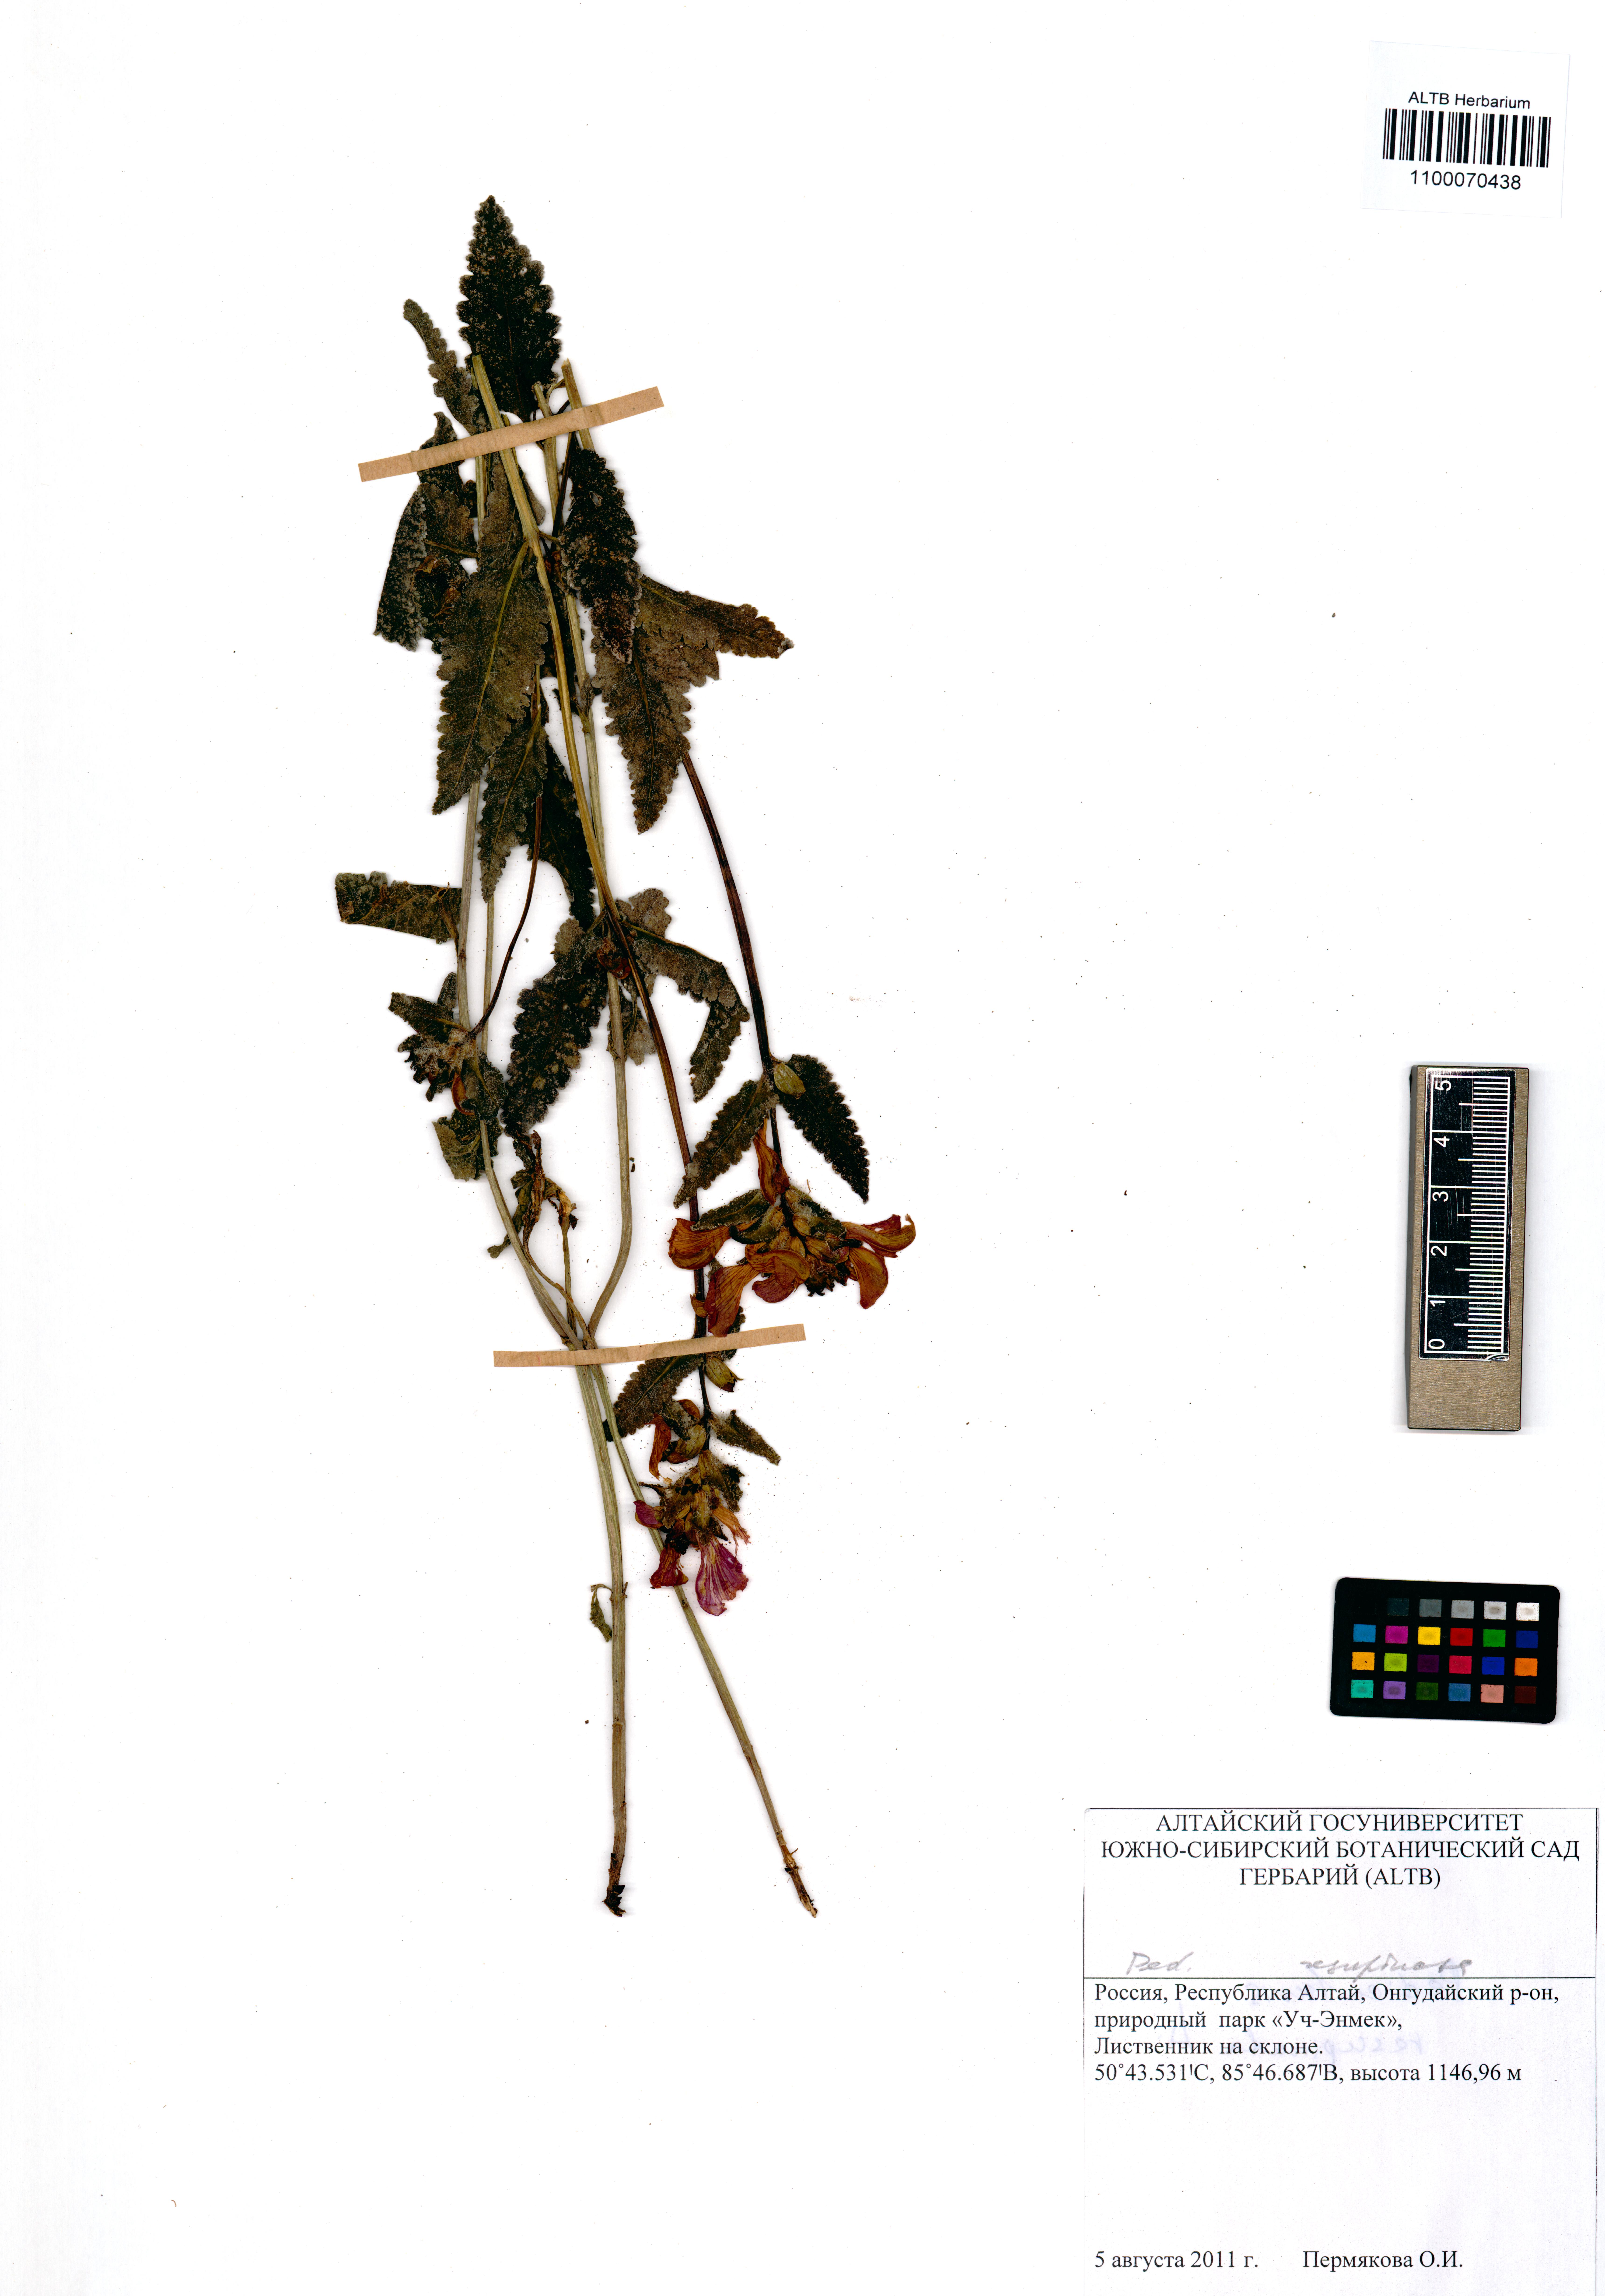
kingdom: Plantae
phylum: Tracheophyta
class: Magnoliopsida
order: Lamiales
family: Orobanchaceae
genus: Pedicularis
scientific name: Pedicularis resupinata
